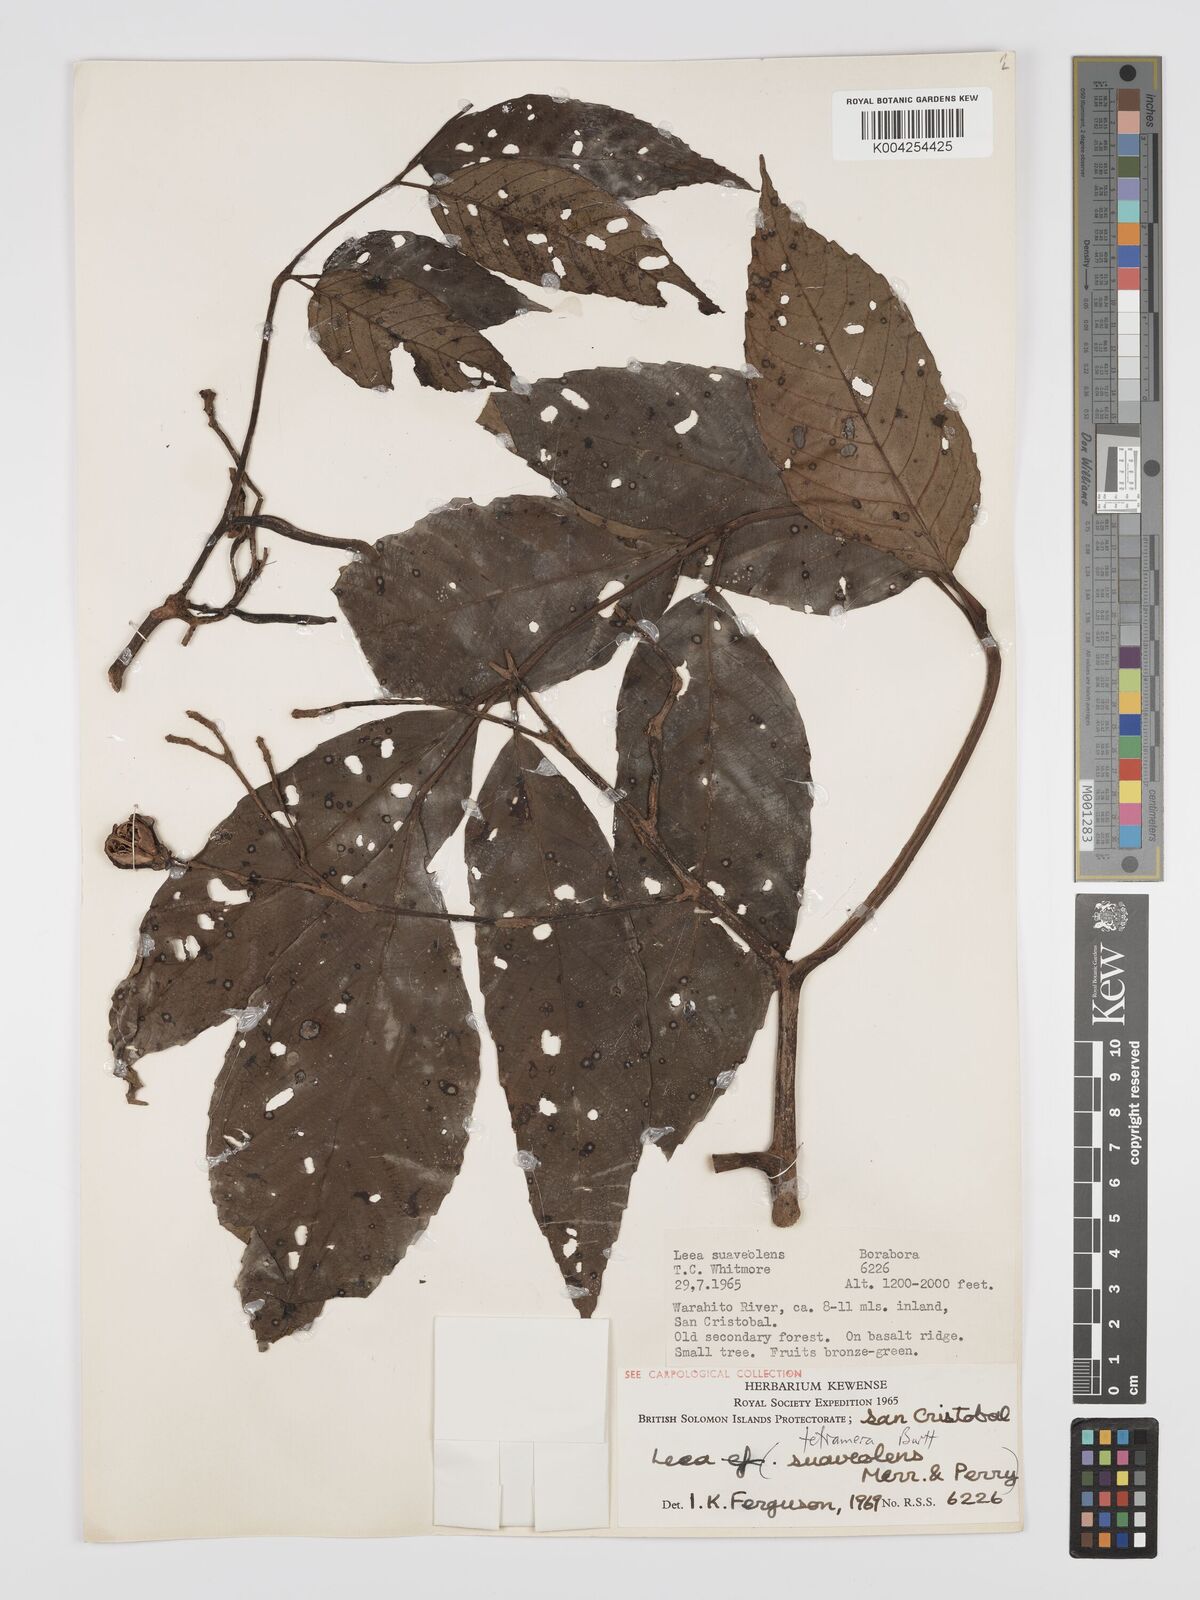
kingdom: Plantae
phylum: Tracheophyta
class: Magnoliopsida
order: Vitales
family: Vitaceae
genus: Leea
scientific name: Leea tetramera
